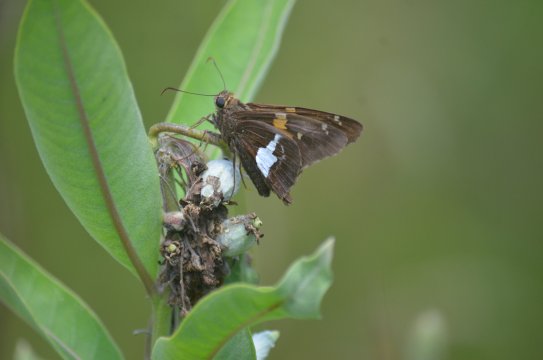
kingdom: Animalia
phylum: Arthropoda
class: Insecta
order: Lepidoptera
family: Hesperiidae
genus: Epargyreus
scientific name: Epargyreus clarus
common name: Silver-spotted Skipper
